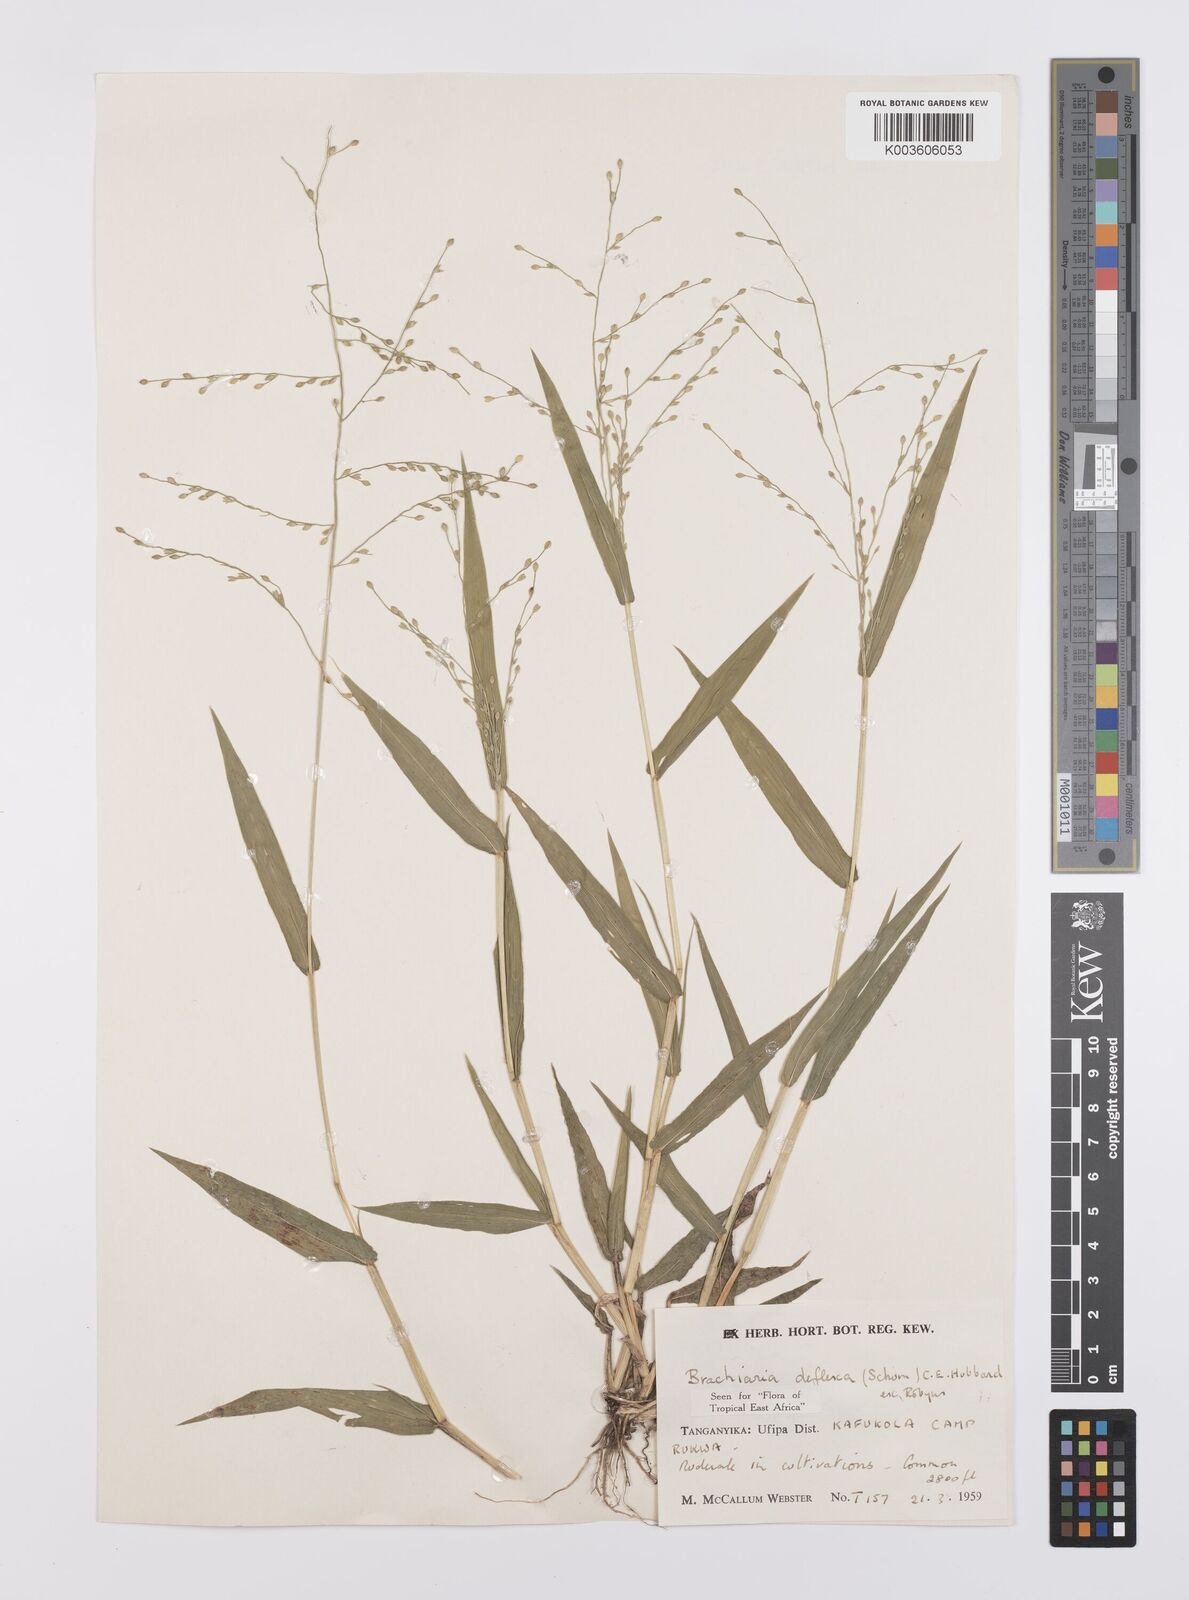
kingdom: Plantae
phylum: Tracheophyta
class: Liliopsida
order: Poales
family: Poaceae
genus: Urochloa
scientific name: Urochloa deflexa
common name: Guinea millet
